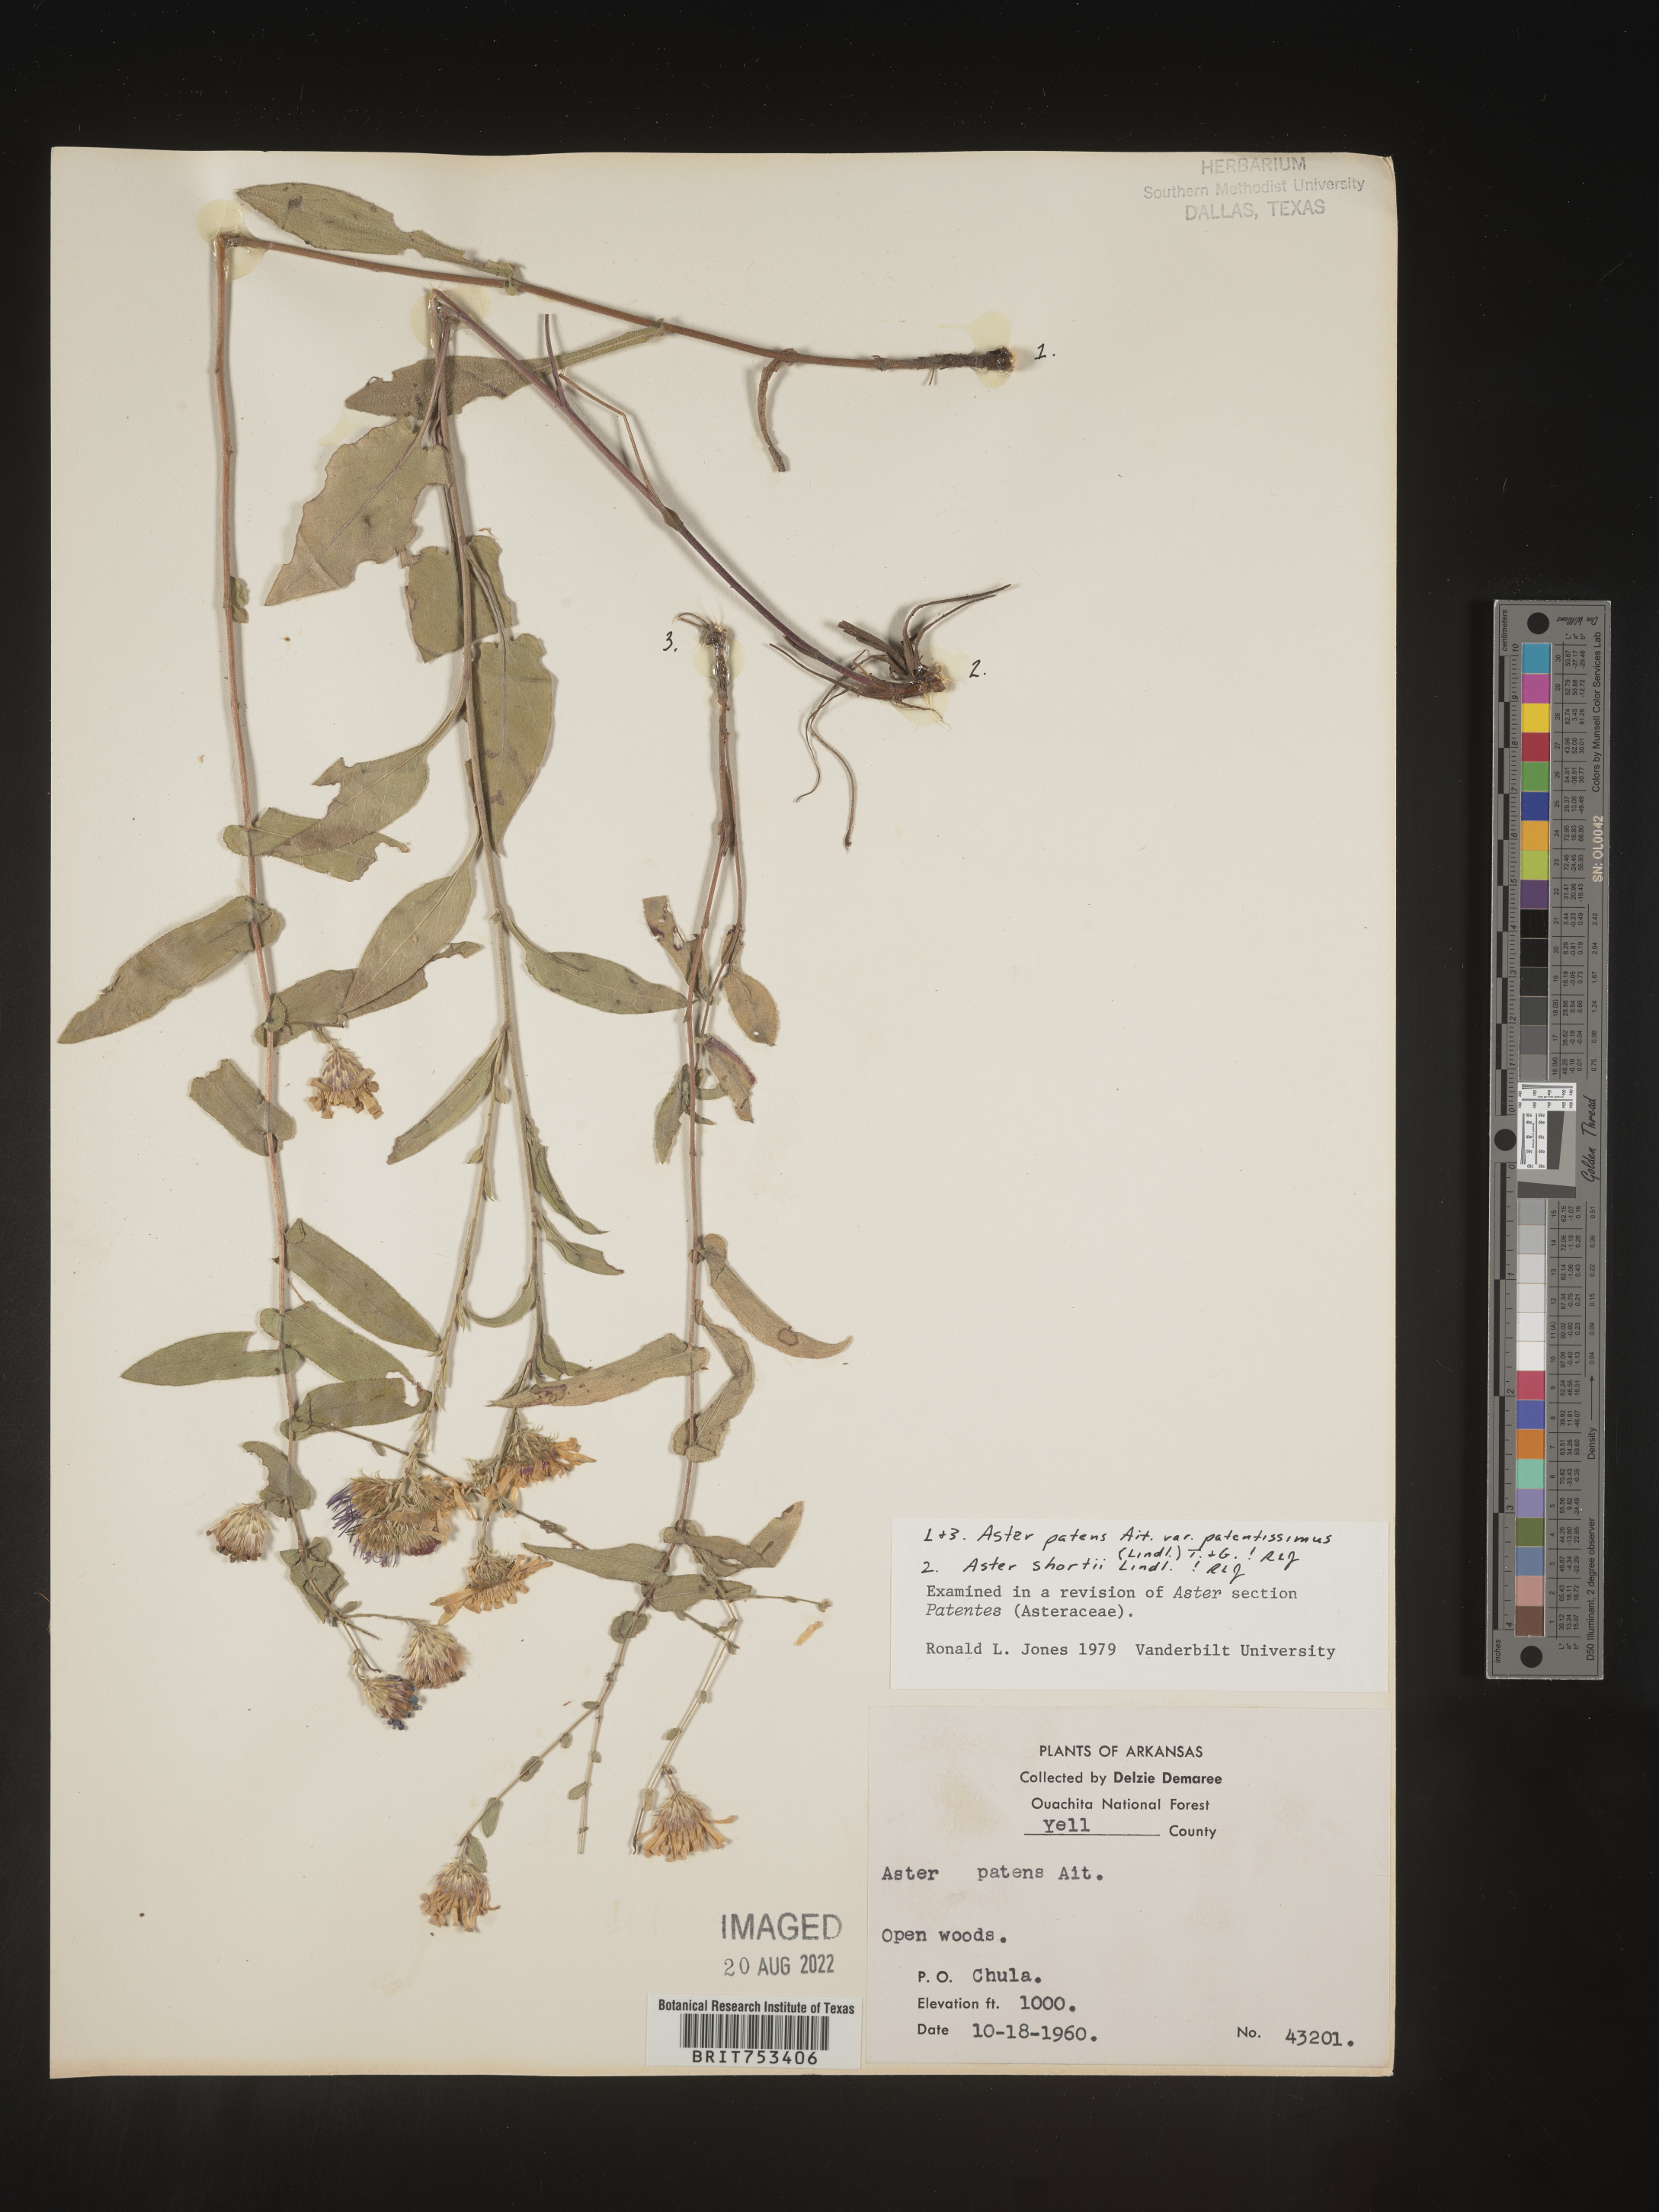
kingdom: Plantae
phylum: Tracheophyta
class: Magnoliopsida
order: Asterales
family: Asteraceae
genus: Symphyotrichum
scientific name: Symphyotrichum patens
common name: Late purple aster
